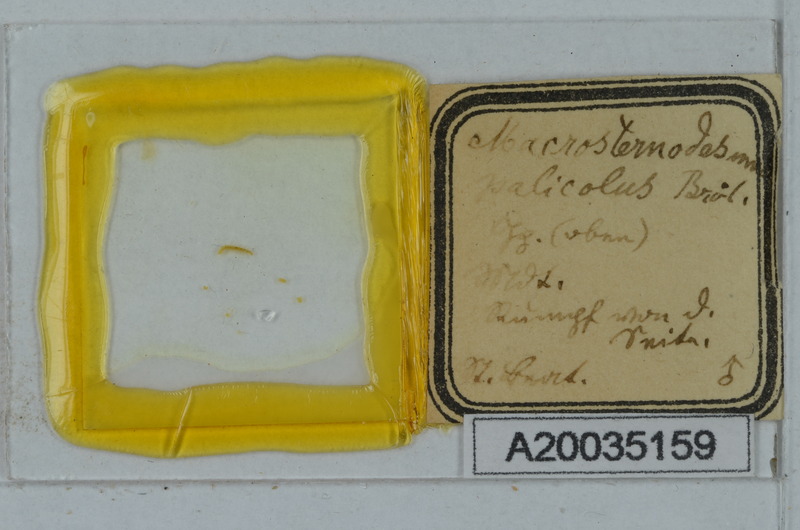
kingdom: Animalia
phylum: Arthropoda
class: Diplopoda
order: Polydesmida
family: Macrosternodesmidae
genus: Macrosternodesmus
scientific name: Macrosternodesmus palicola
